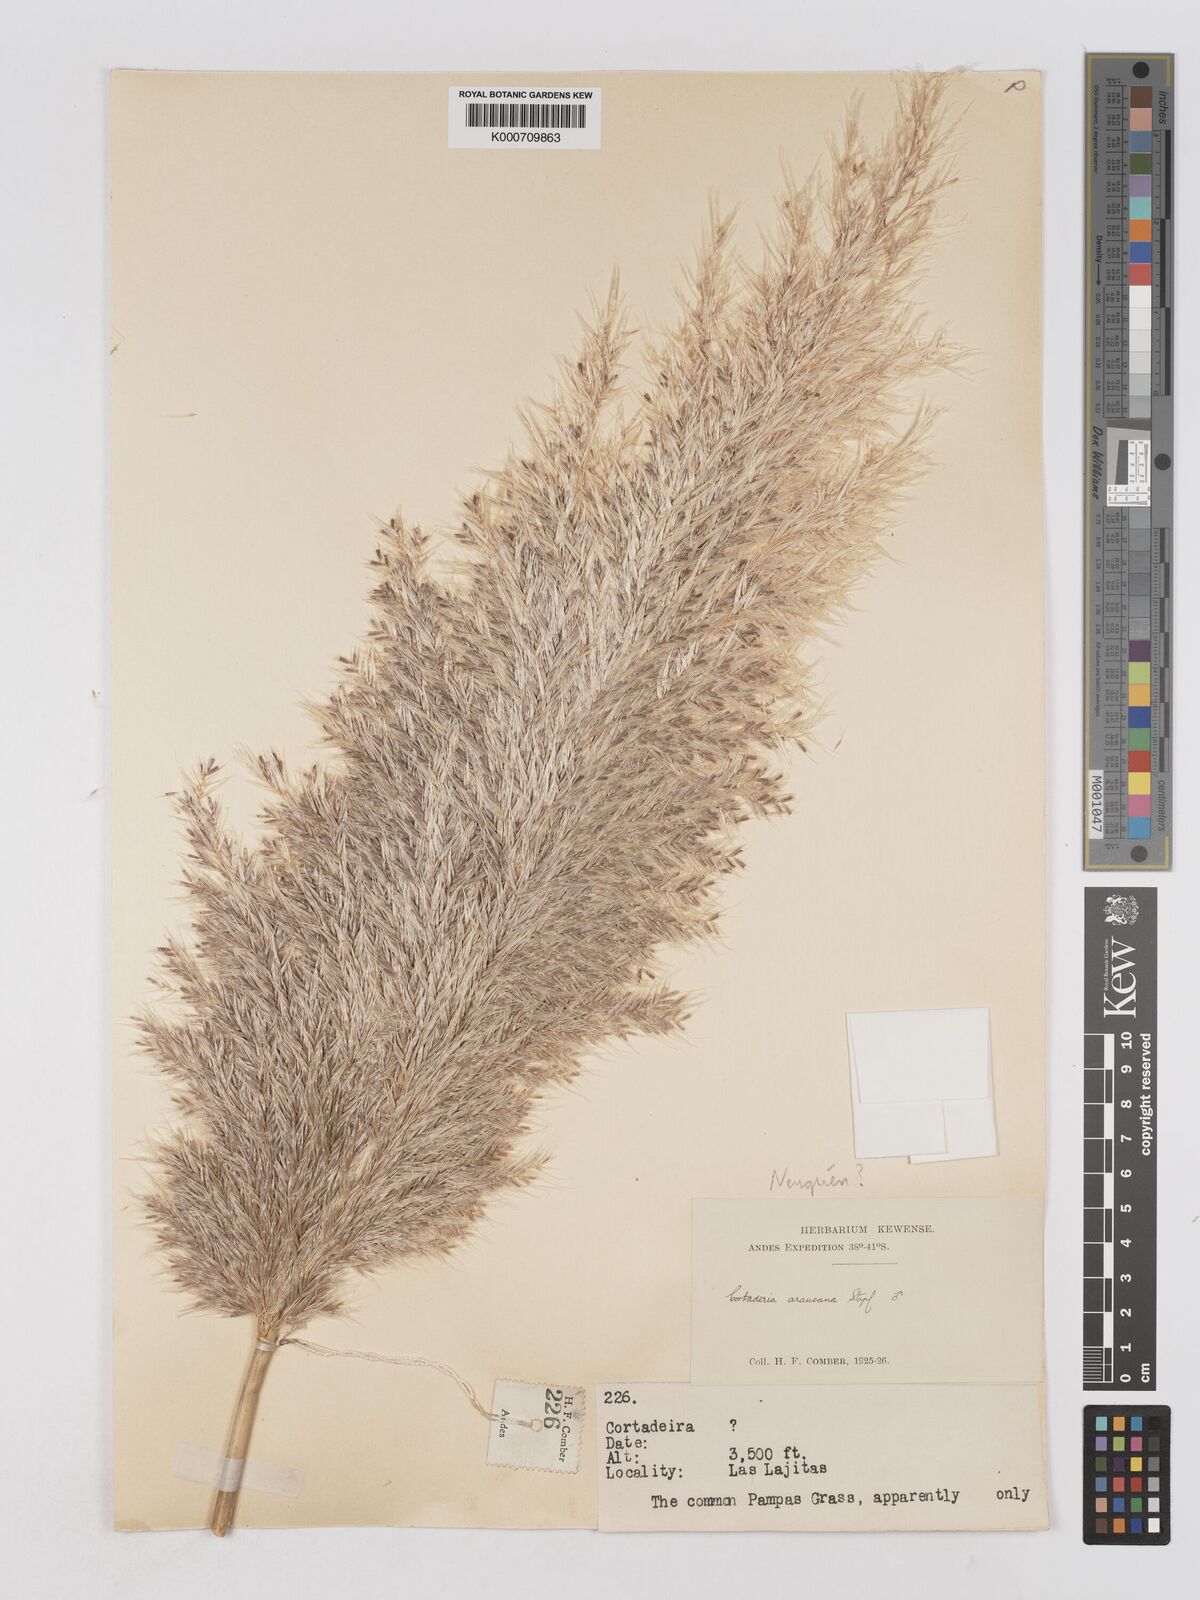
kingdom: Plantae
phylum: Tracheophyta
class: Liliopsida
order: Poales
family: Poaceae
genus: Cortaderia
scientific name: Cortaderia selloana
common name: Uruguayan pampas grass
